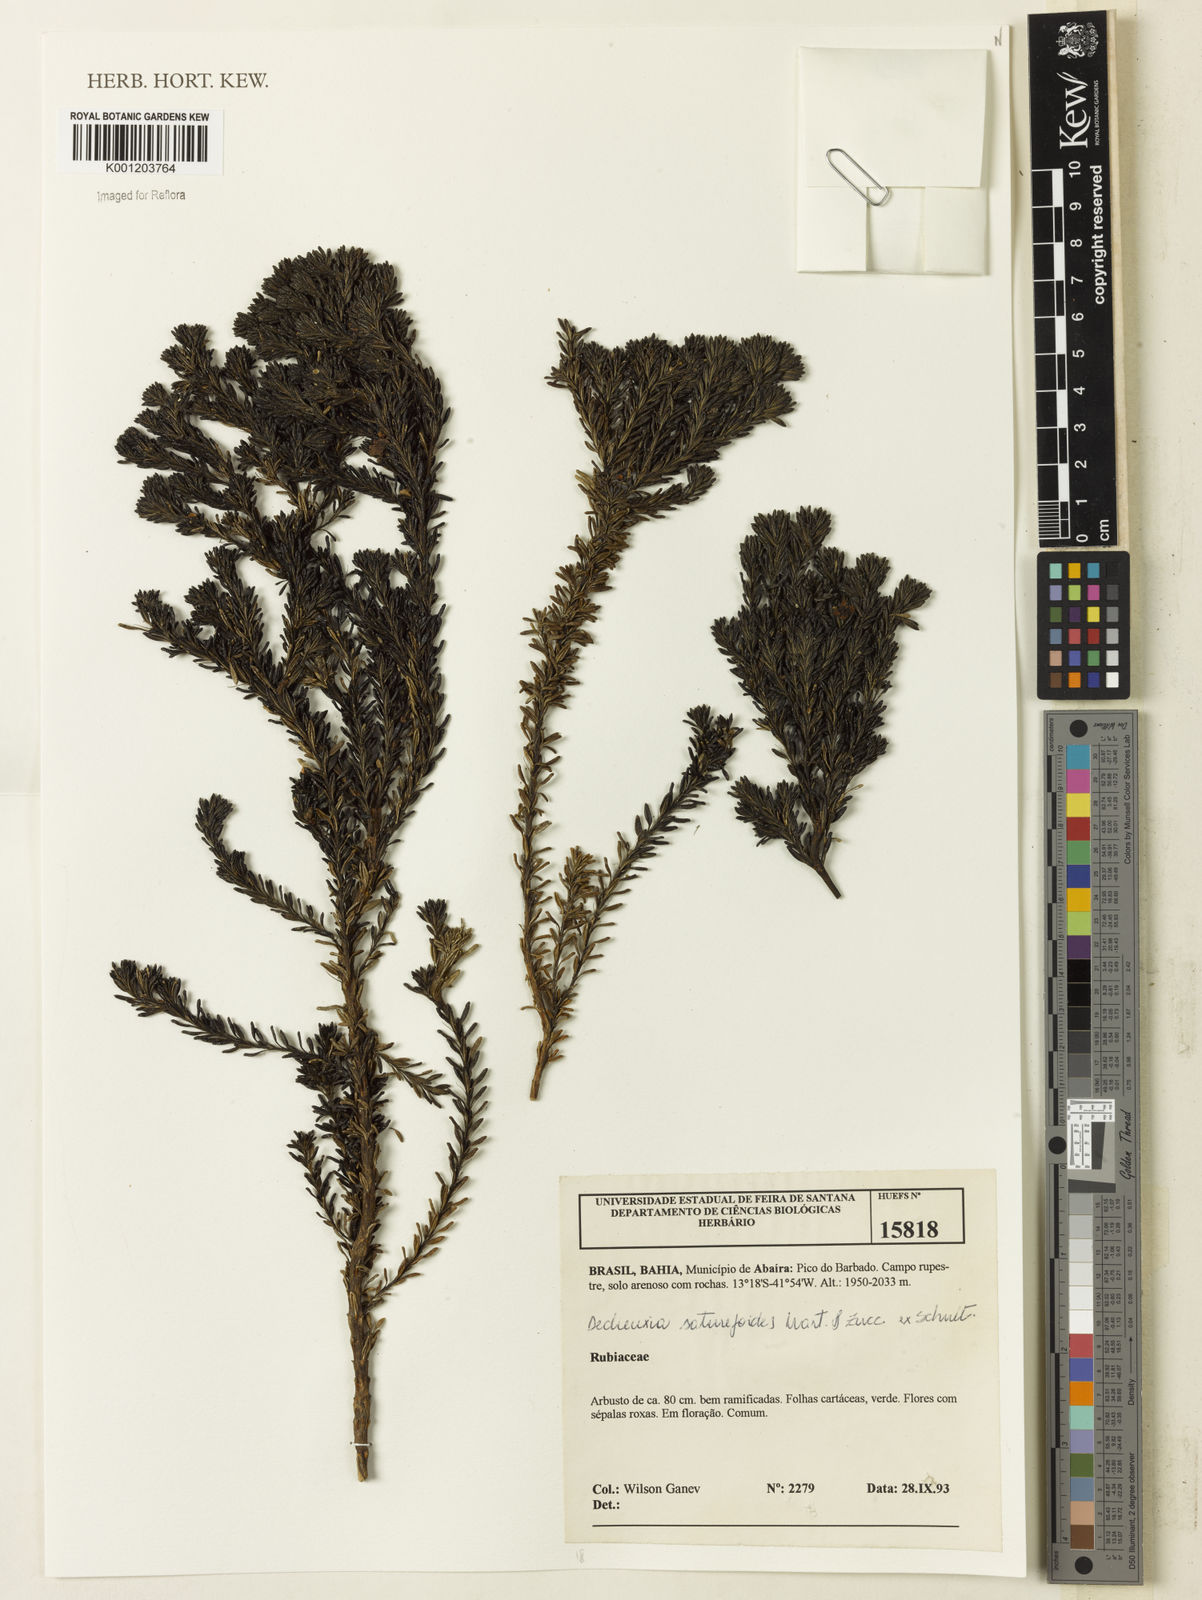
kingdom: Plantae
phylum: Tracheophyta
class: Magnoliopsida
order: Gentianales
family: Rubiaceae
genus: Declieuxia
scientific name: Declieuxia
